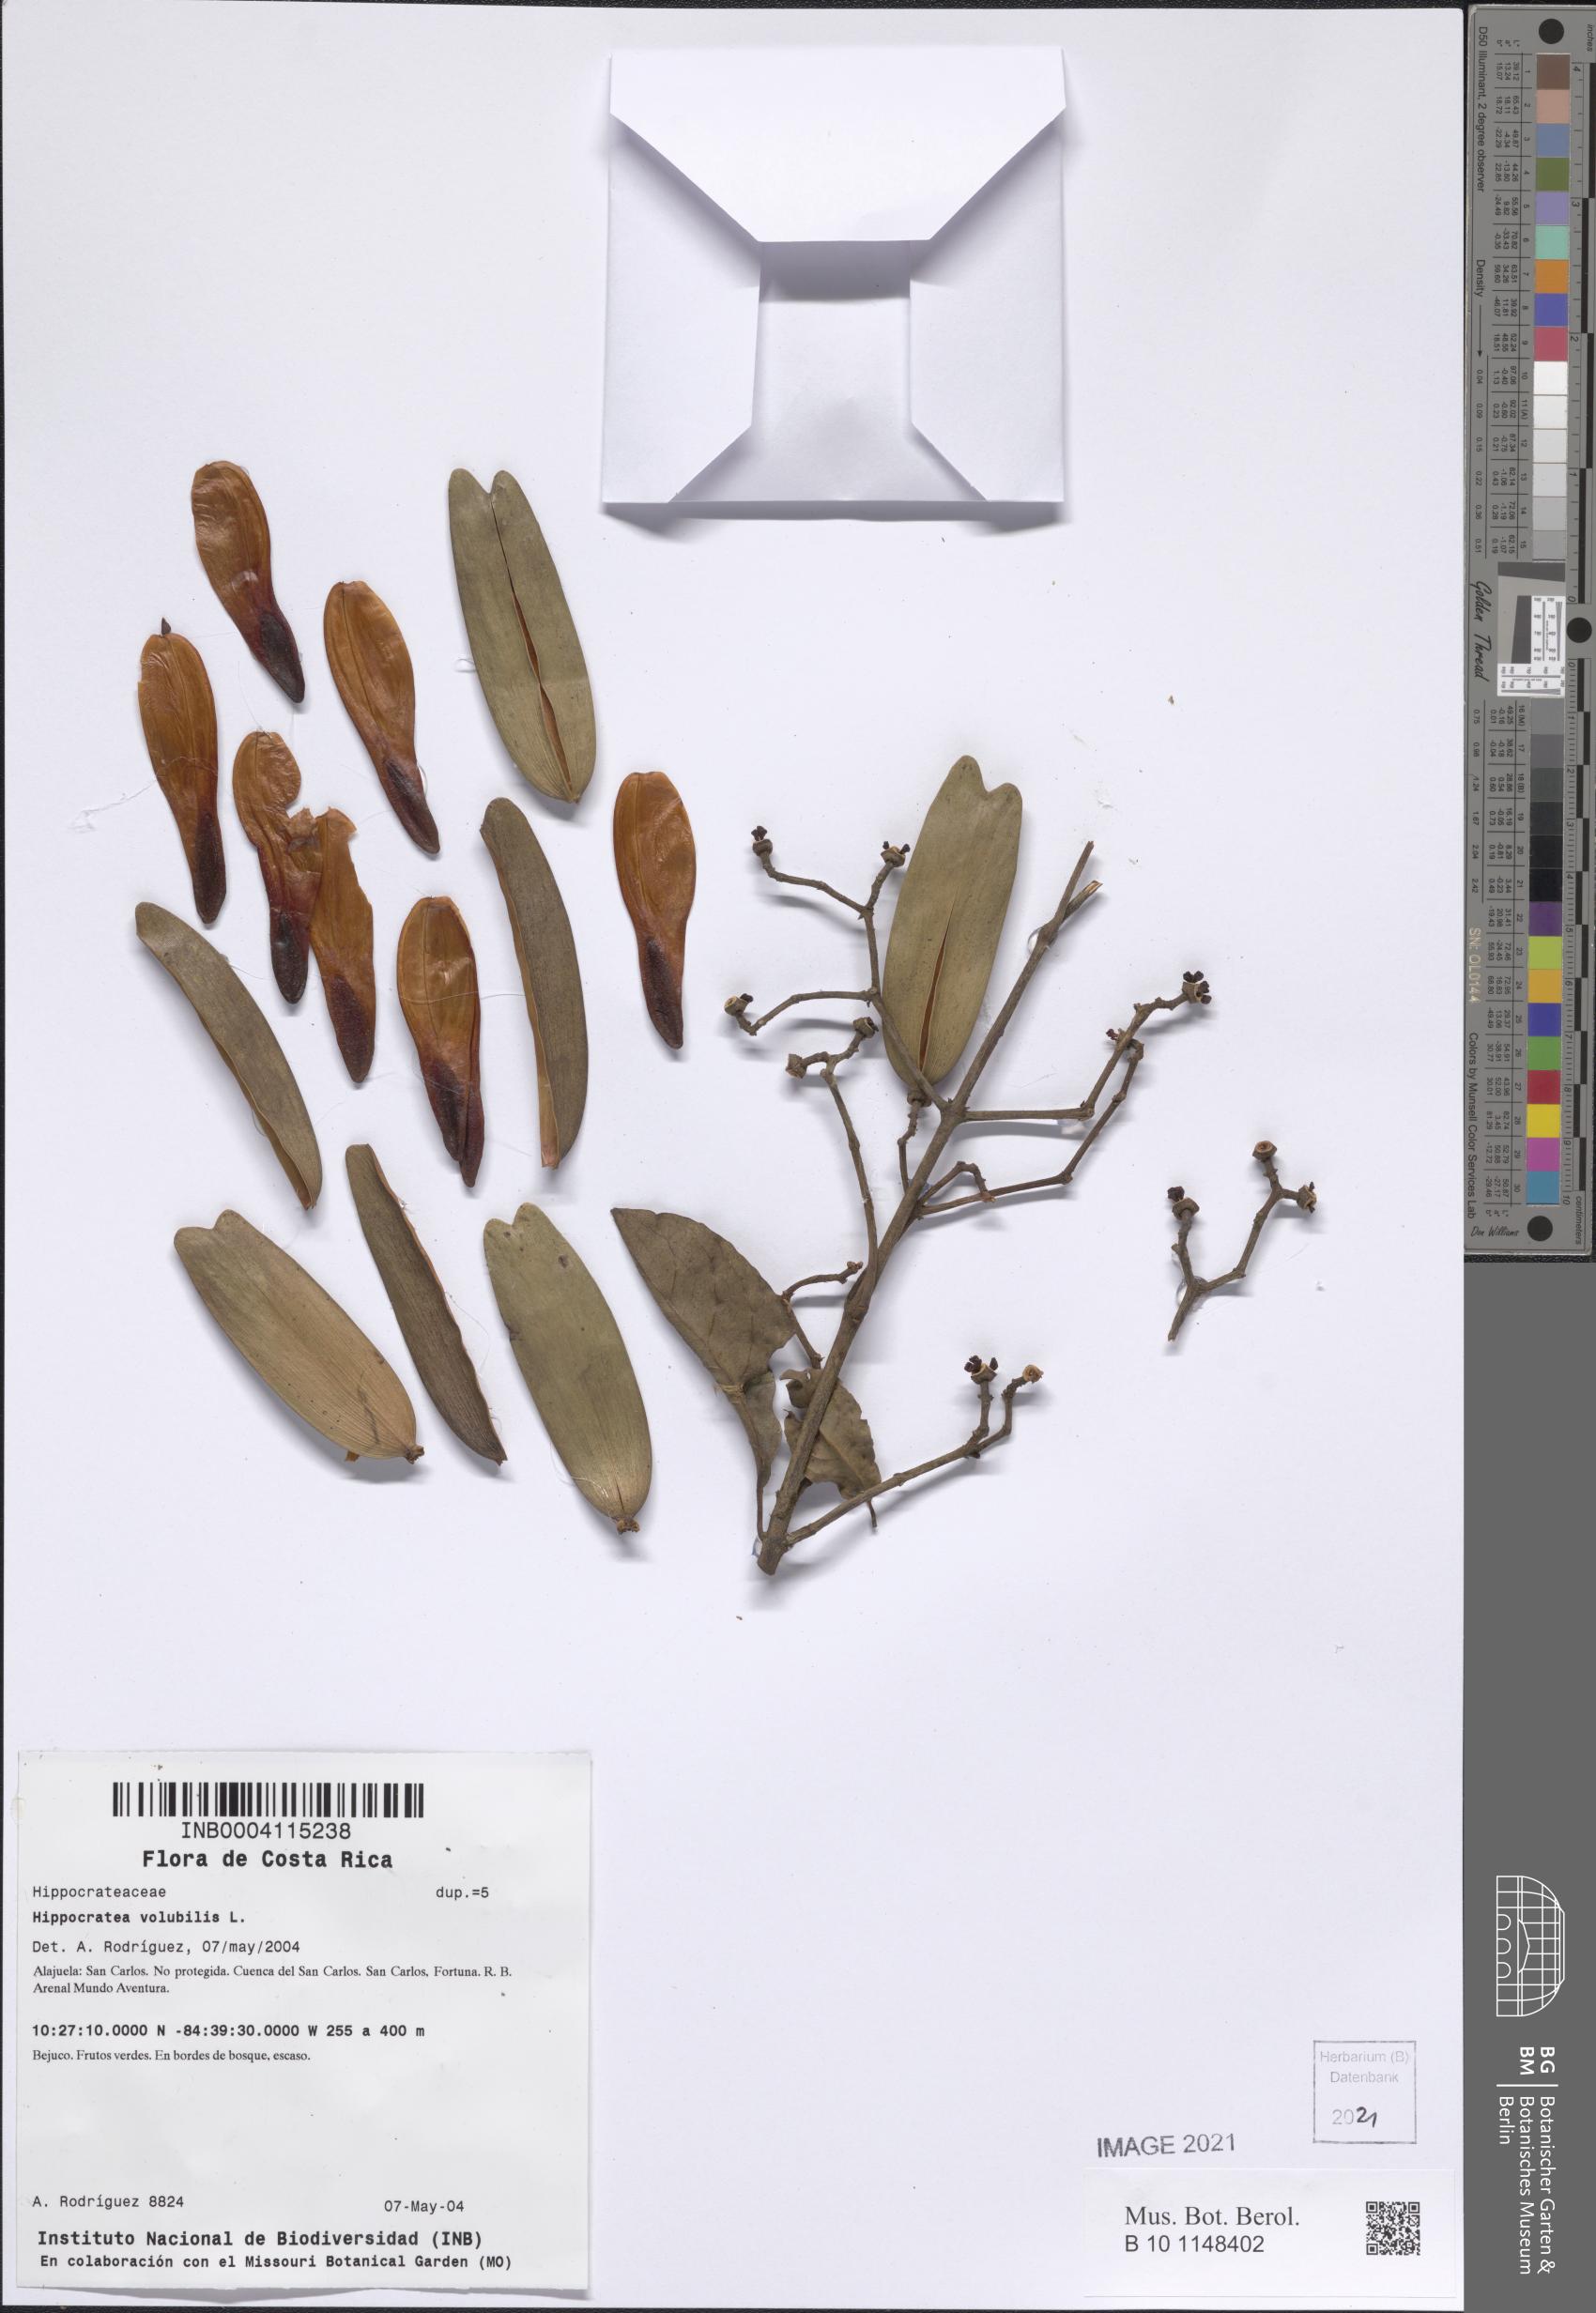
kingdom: Plantae
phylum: Tracheophyta
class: Magnoliopsida
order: Celastrales
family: Celastraceae
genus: Hippocratea
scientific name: Hippocratea volubilis
